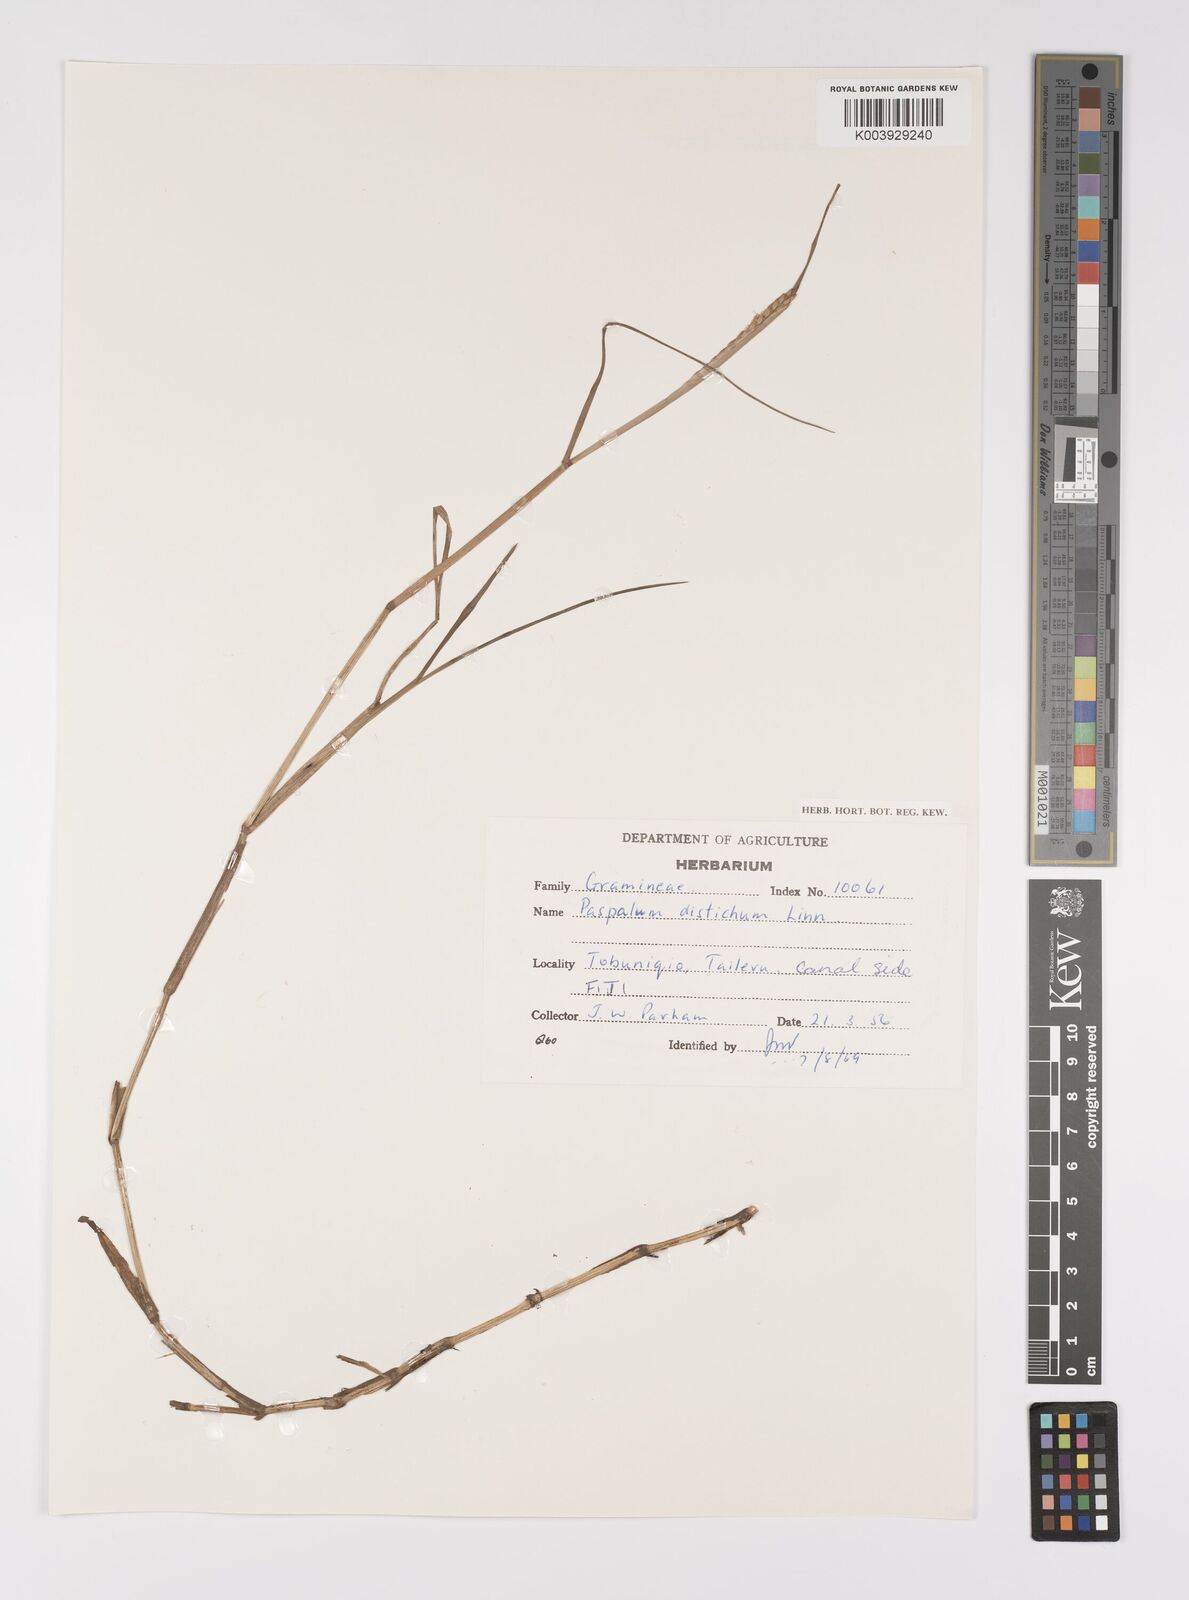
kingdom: Plantae
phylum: Tracheophyta
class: Liliopsida
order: Poales
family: Poaceae
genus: Paspalum
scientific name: Paspalum vaginatum
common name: Seashore paspalum
